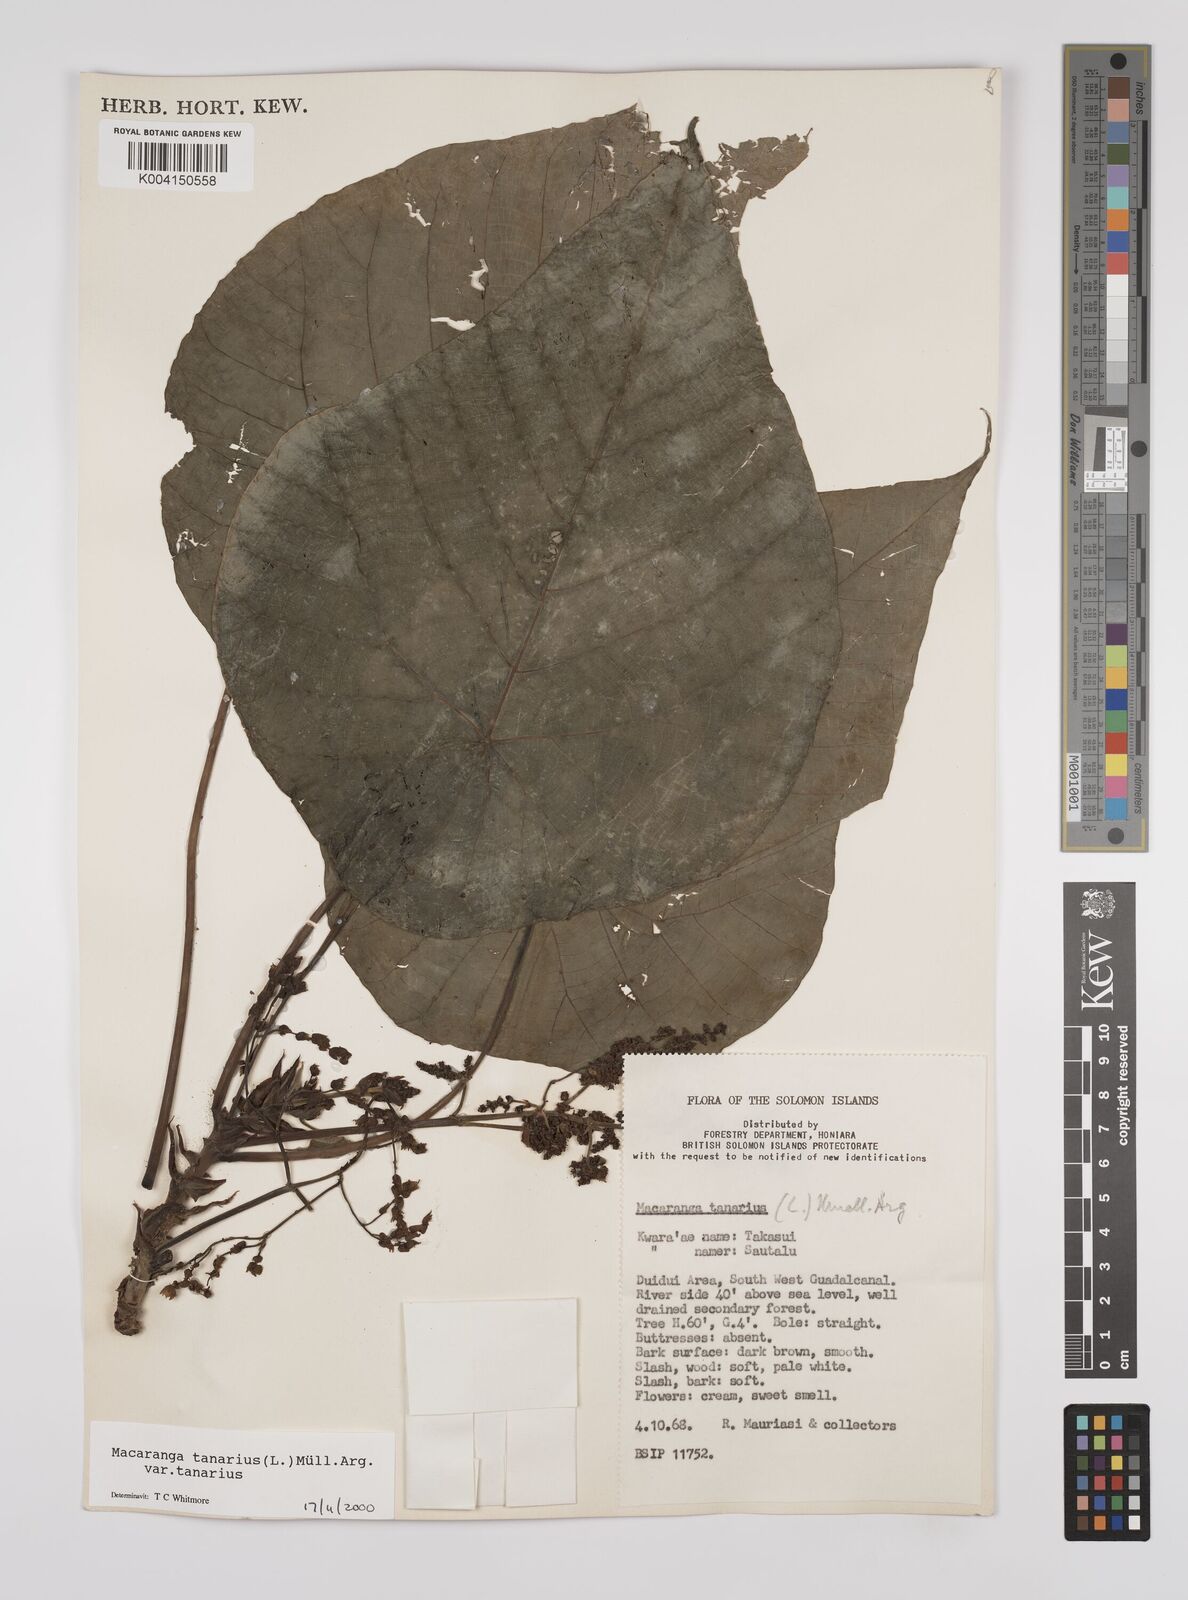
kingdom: Plantae
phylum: Tracheophyta
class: Magnoliopsida
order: Malpighiales
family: Euphorbiaceae
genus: Macaranga
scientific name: Macaranga tanarius
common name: Parasol leaf tree
